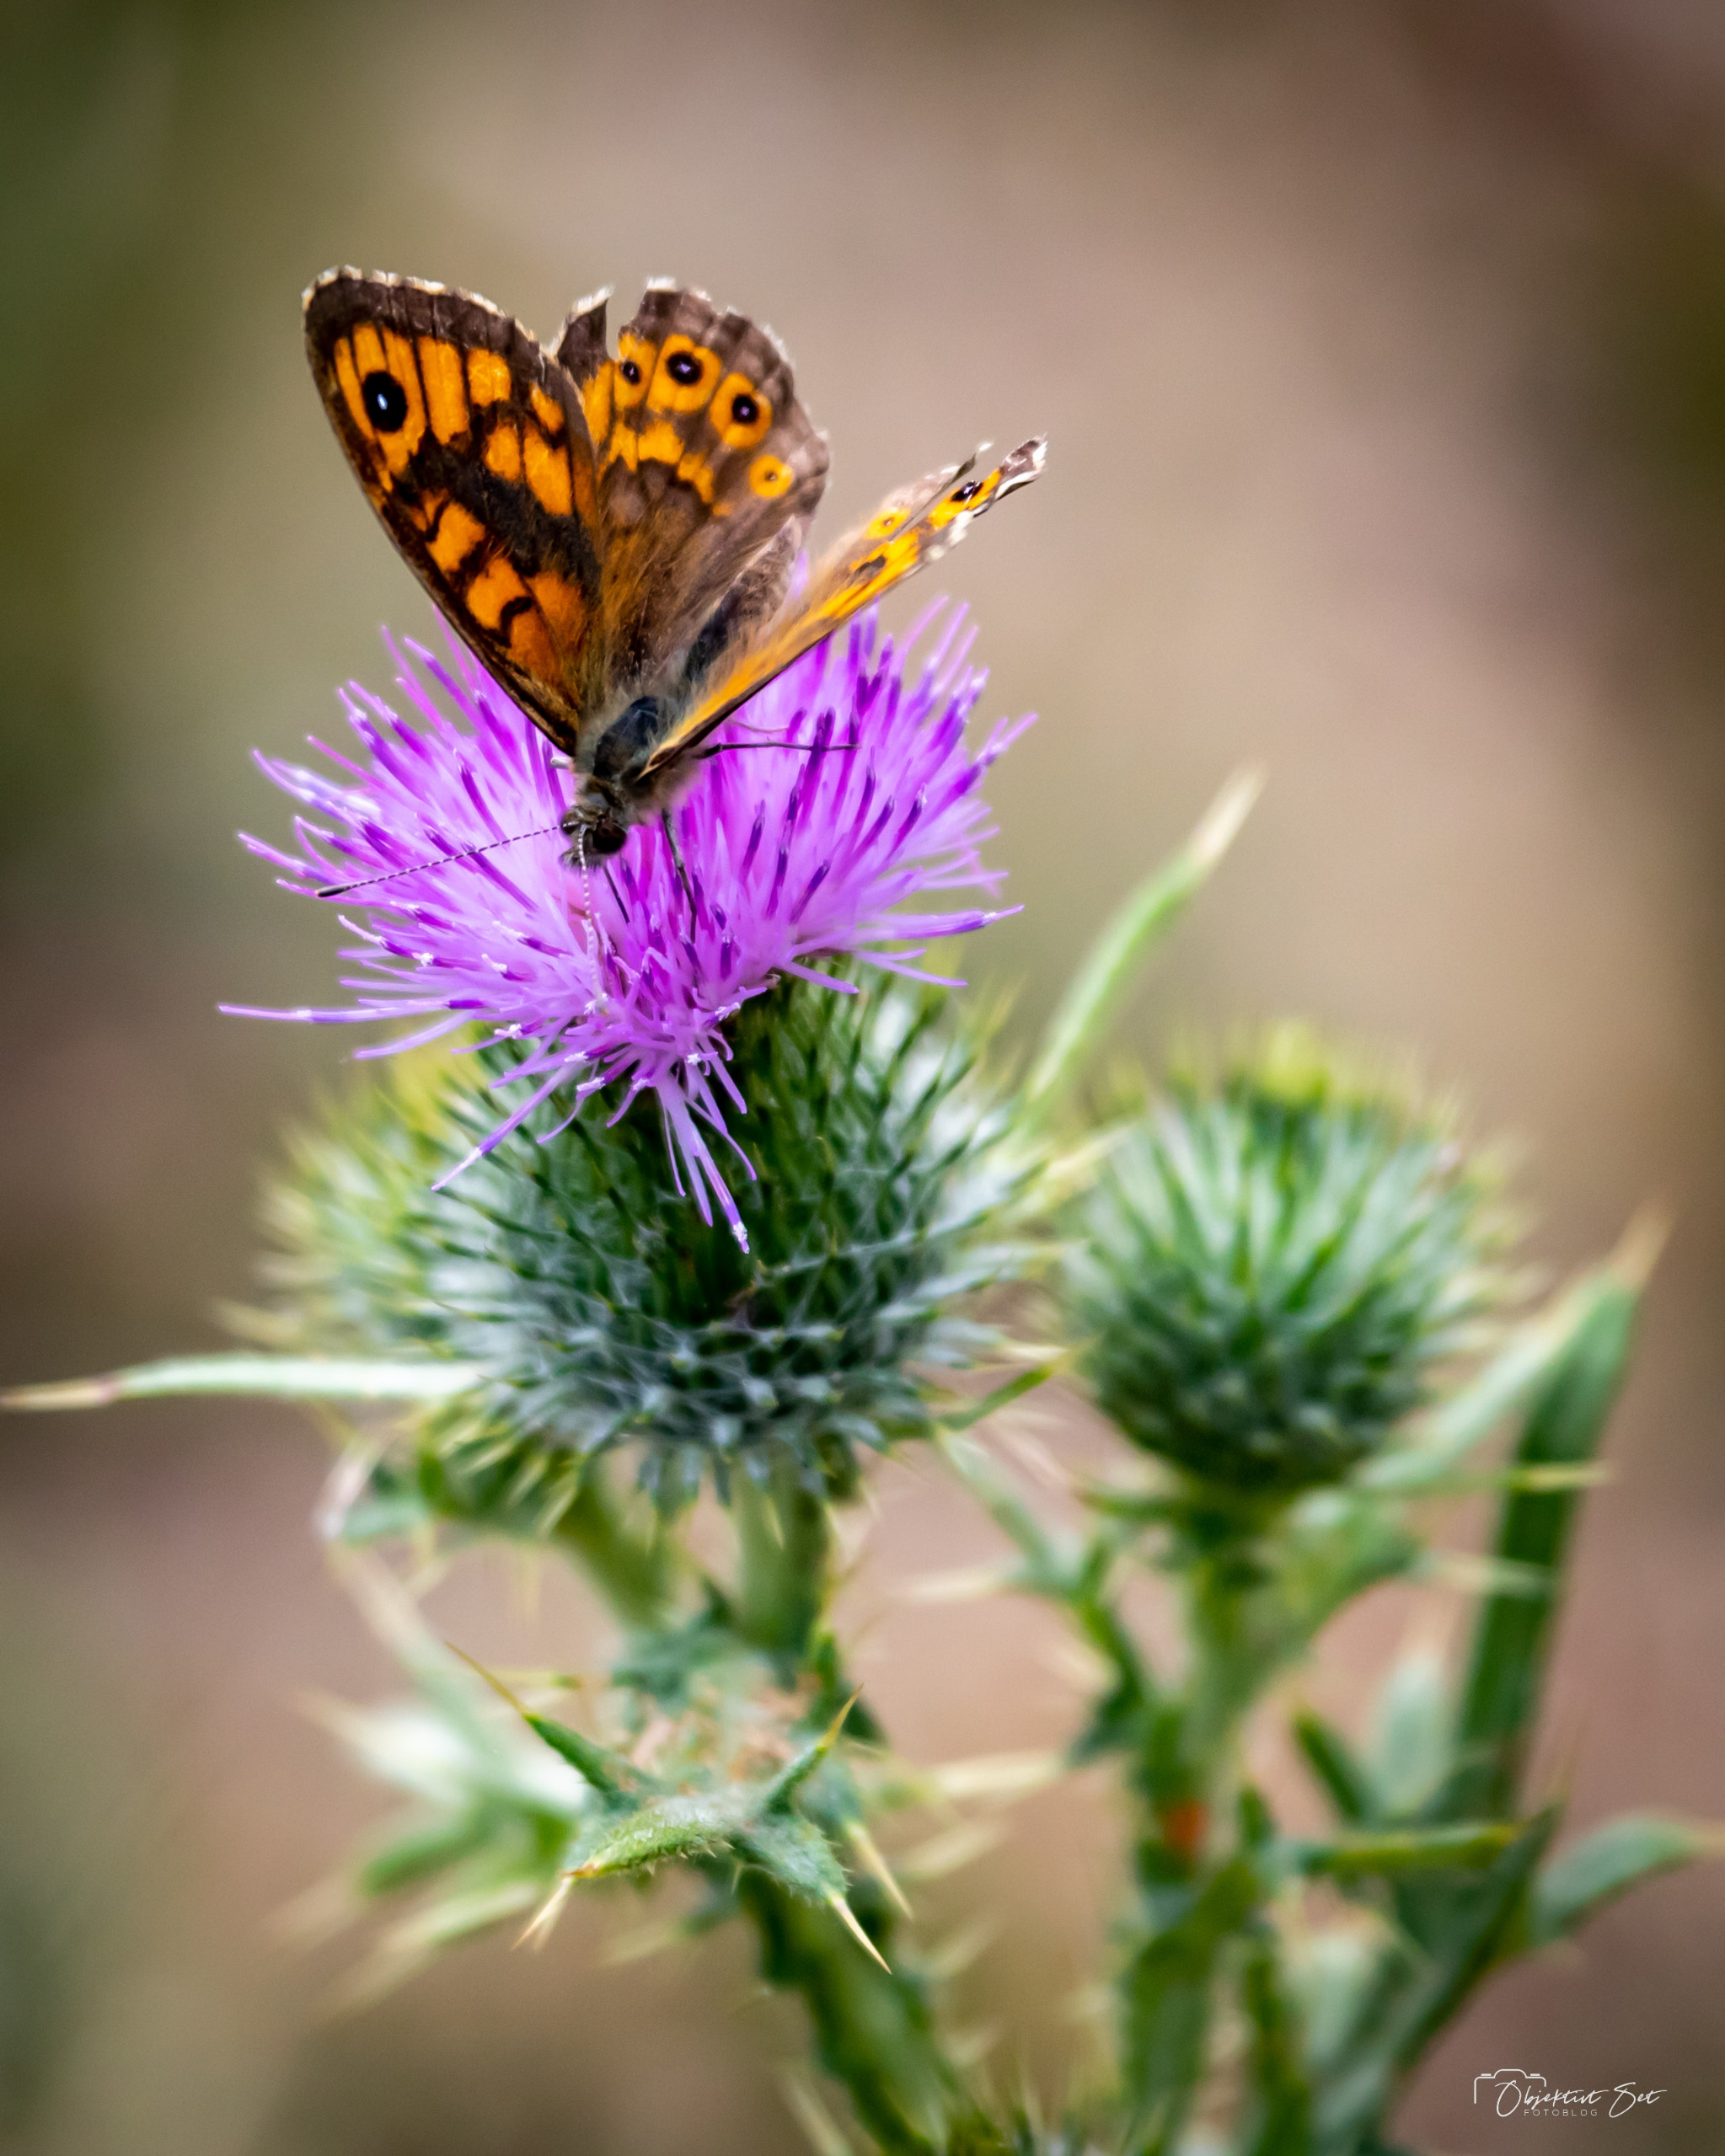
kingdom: Animalia
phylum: Arthropoda
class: Insecta
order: Lepidoptera
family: Nymphalidae
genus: Pararge
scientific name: Pararge Lasiommata megera
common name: Vejrandøje
